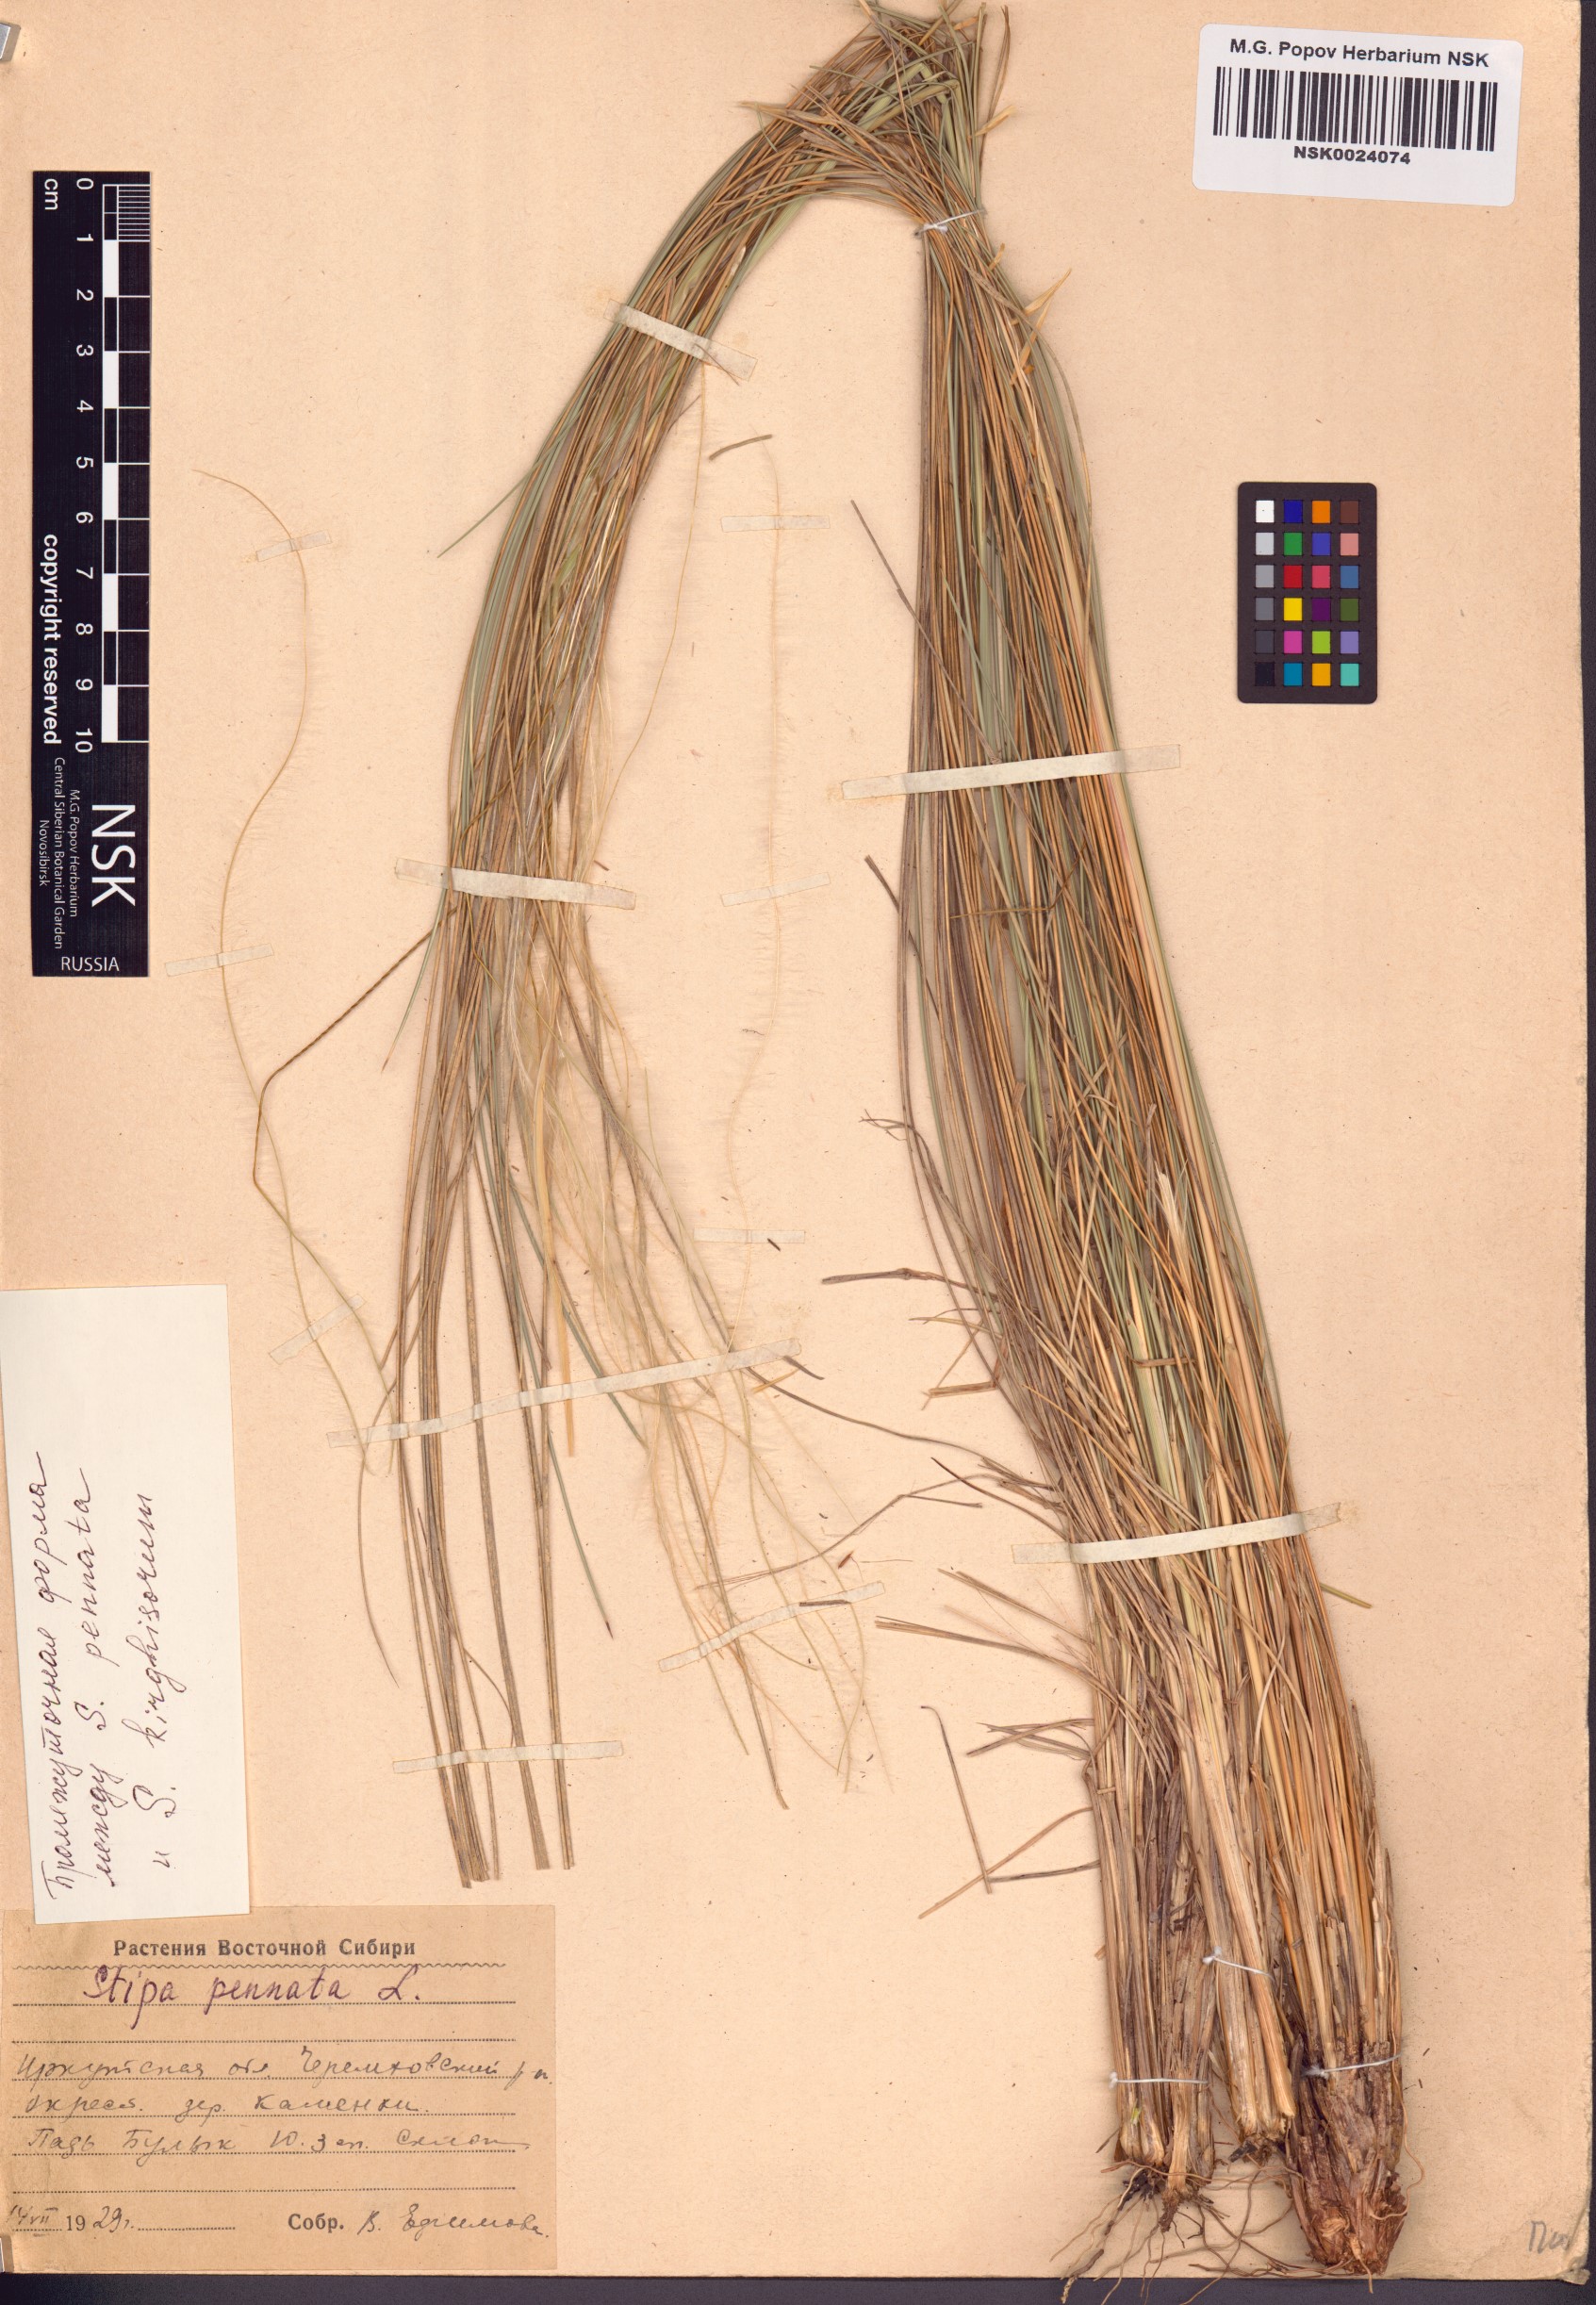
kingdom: Plantae
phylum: Tracheophyta
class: Liliopsida
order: Poales
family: Poaceae
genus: Stipa
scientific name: Stipa pennata
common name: European feather grass
